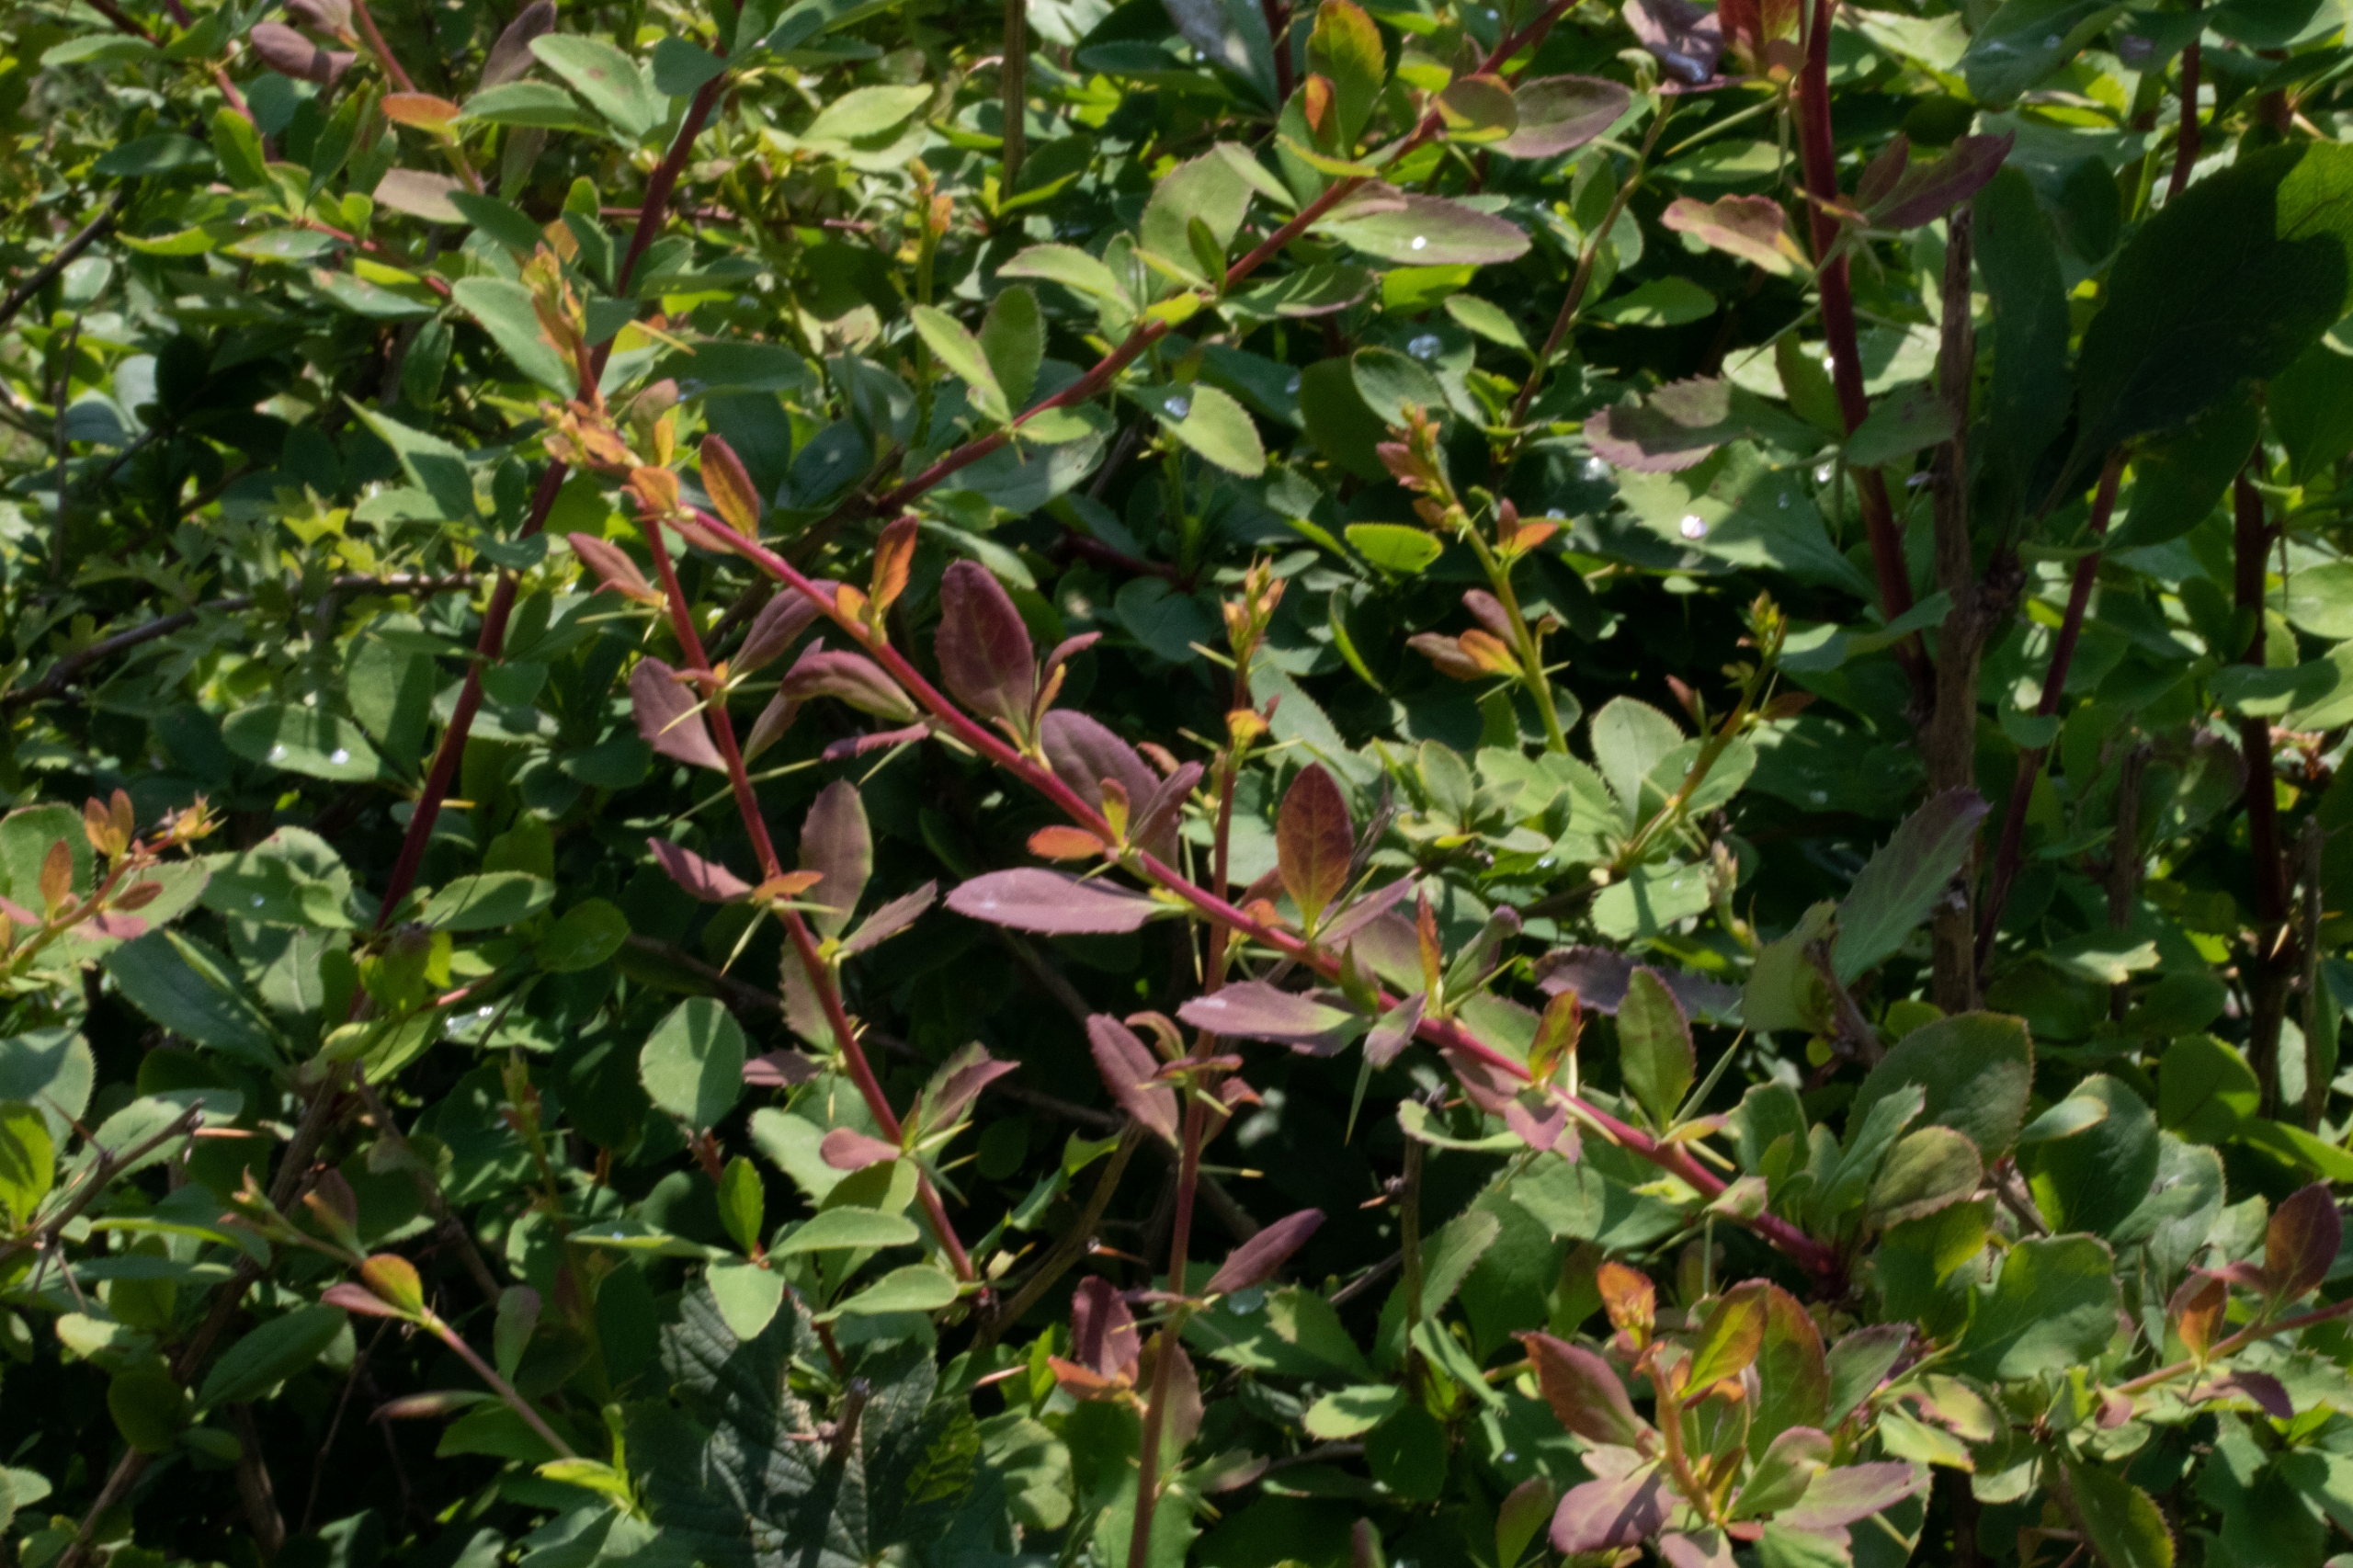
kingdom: Plantae
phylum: Tracheophyta
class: Magnoliopsida
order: Ranunculales
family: Berberidaceae
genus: Berberis
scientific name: Berberis vulgaris
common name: Almindelig berberis
